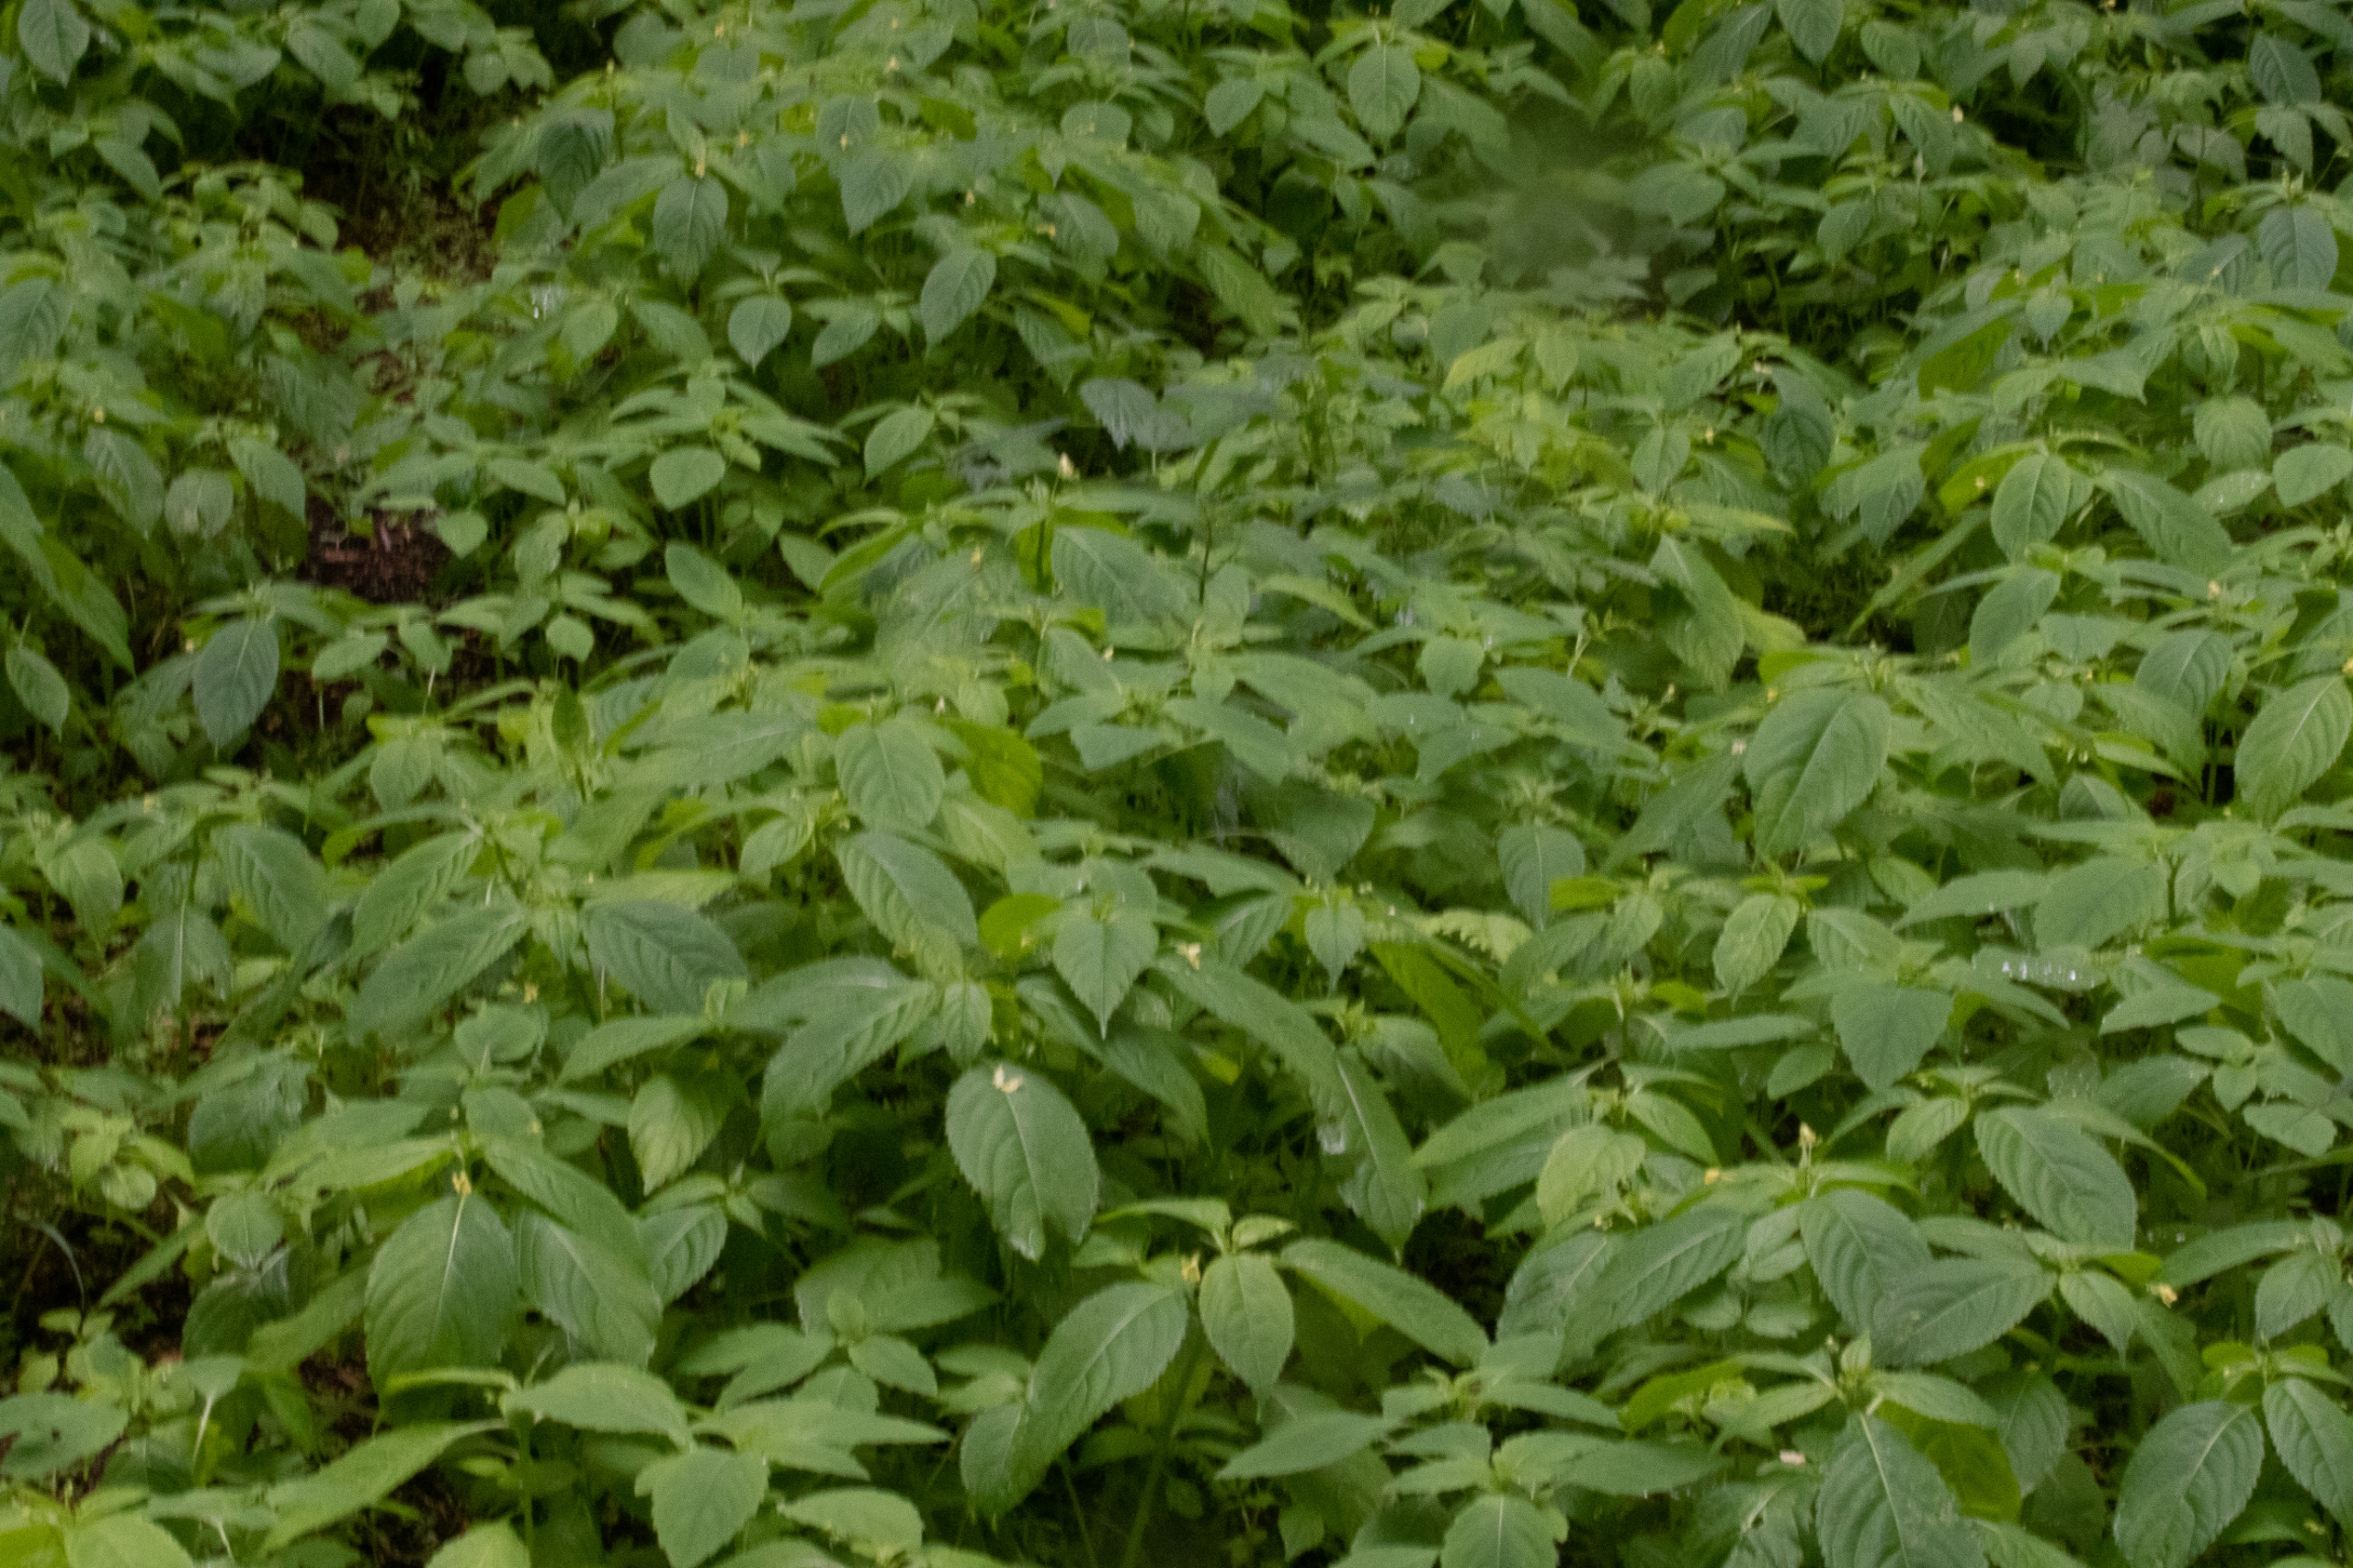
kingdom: Plantae
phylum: Tracheophyta
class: Magnoliopsida
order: Ericales
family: Balsaminaceae
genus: Impatiens
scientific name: Impatiens parviflora
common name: Småblomstret balsamin
